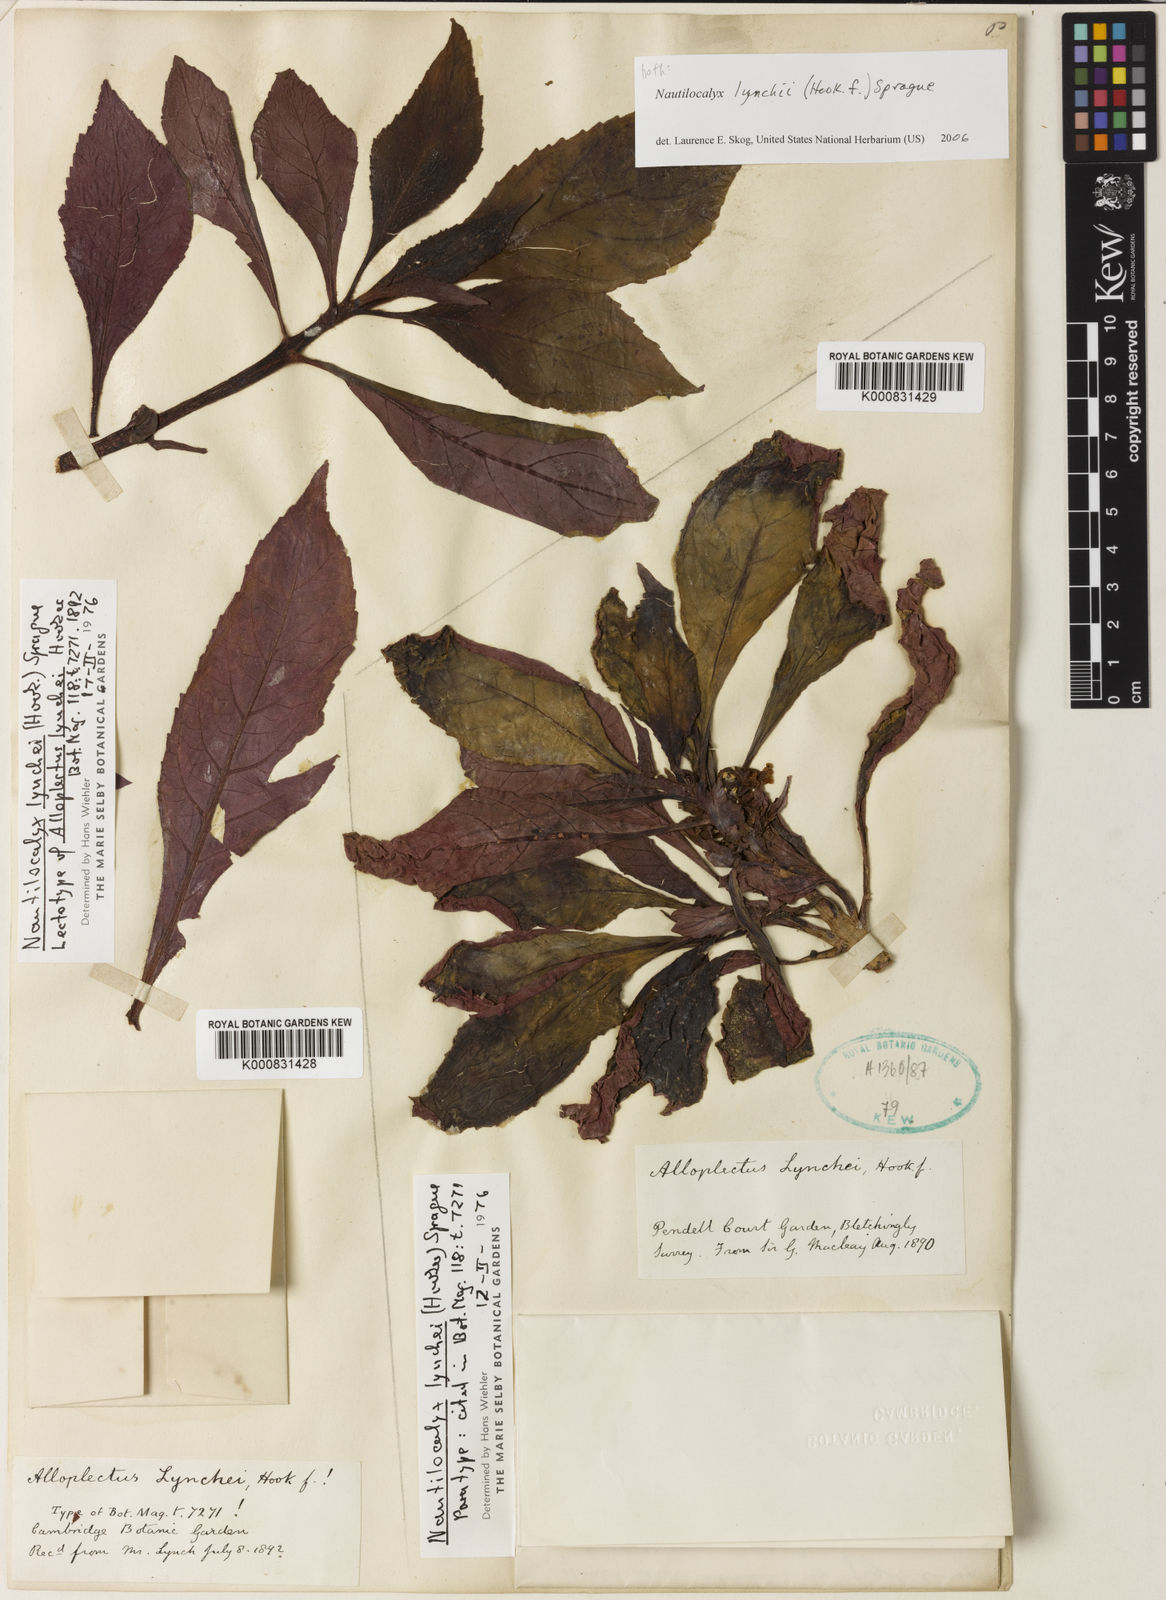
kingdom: Plantae
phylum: Tracheophyta
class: Magnoliopsida
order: Lamiales
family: Gesneriaceae
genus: Nautilocalyx
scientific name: Nautilocalyx lynchii
